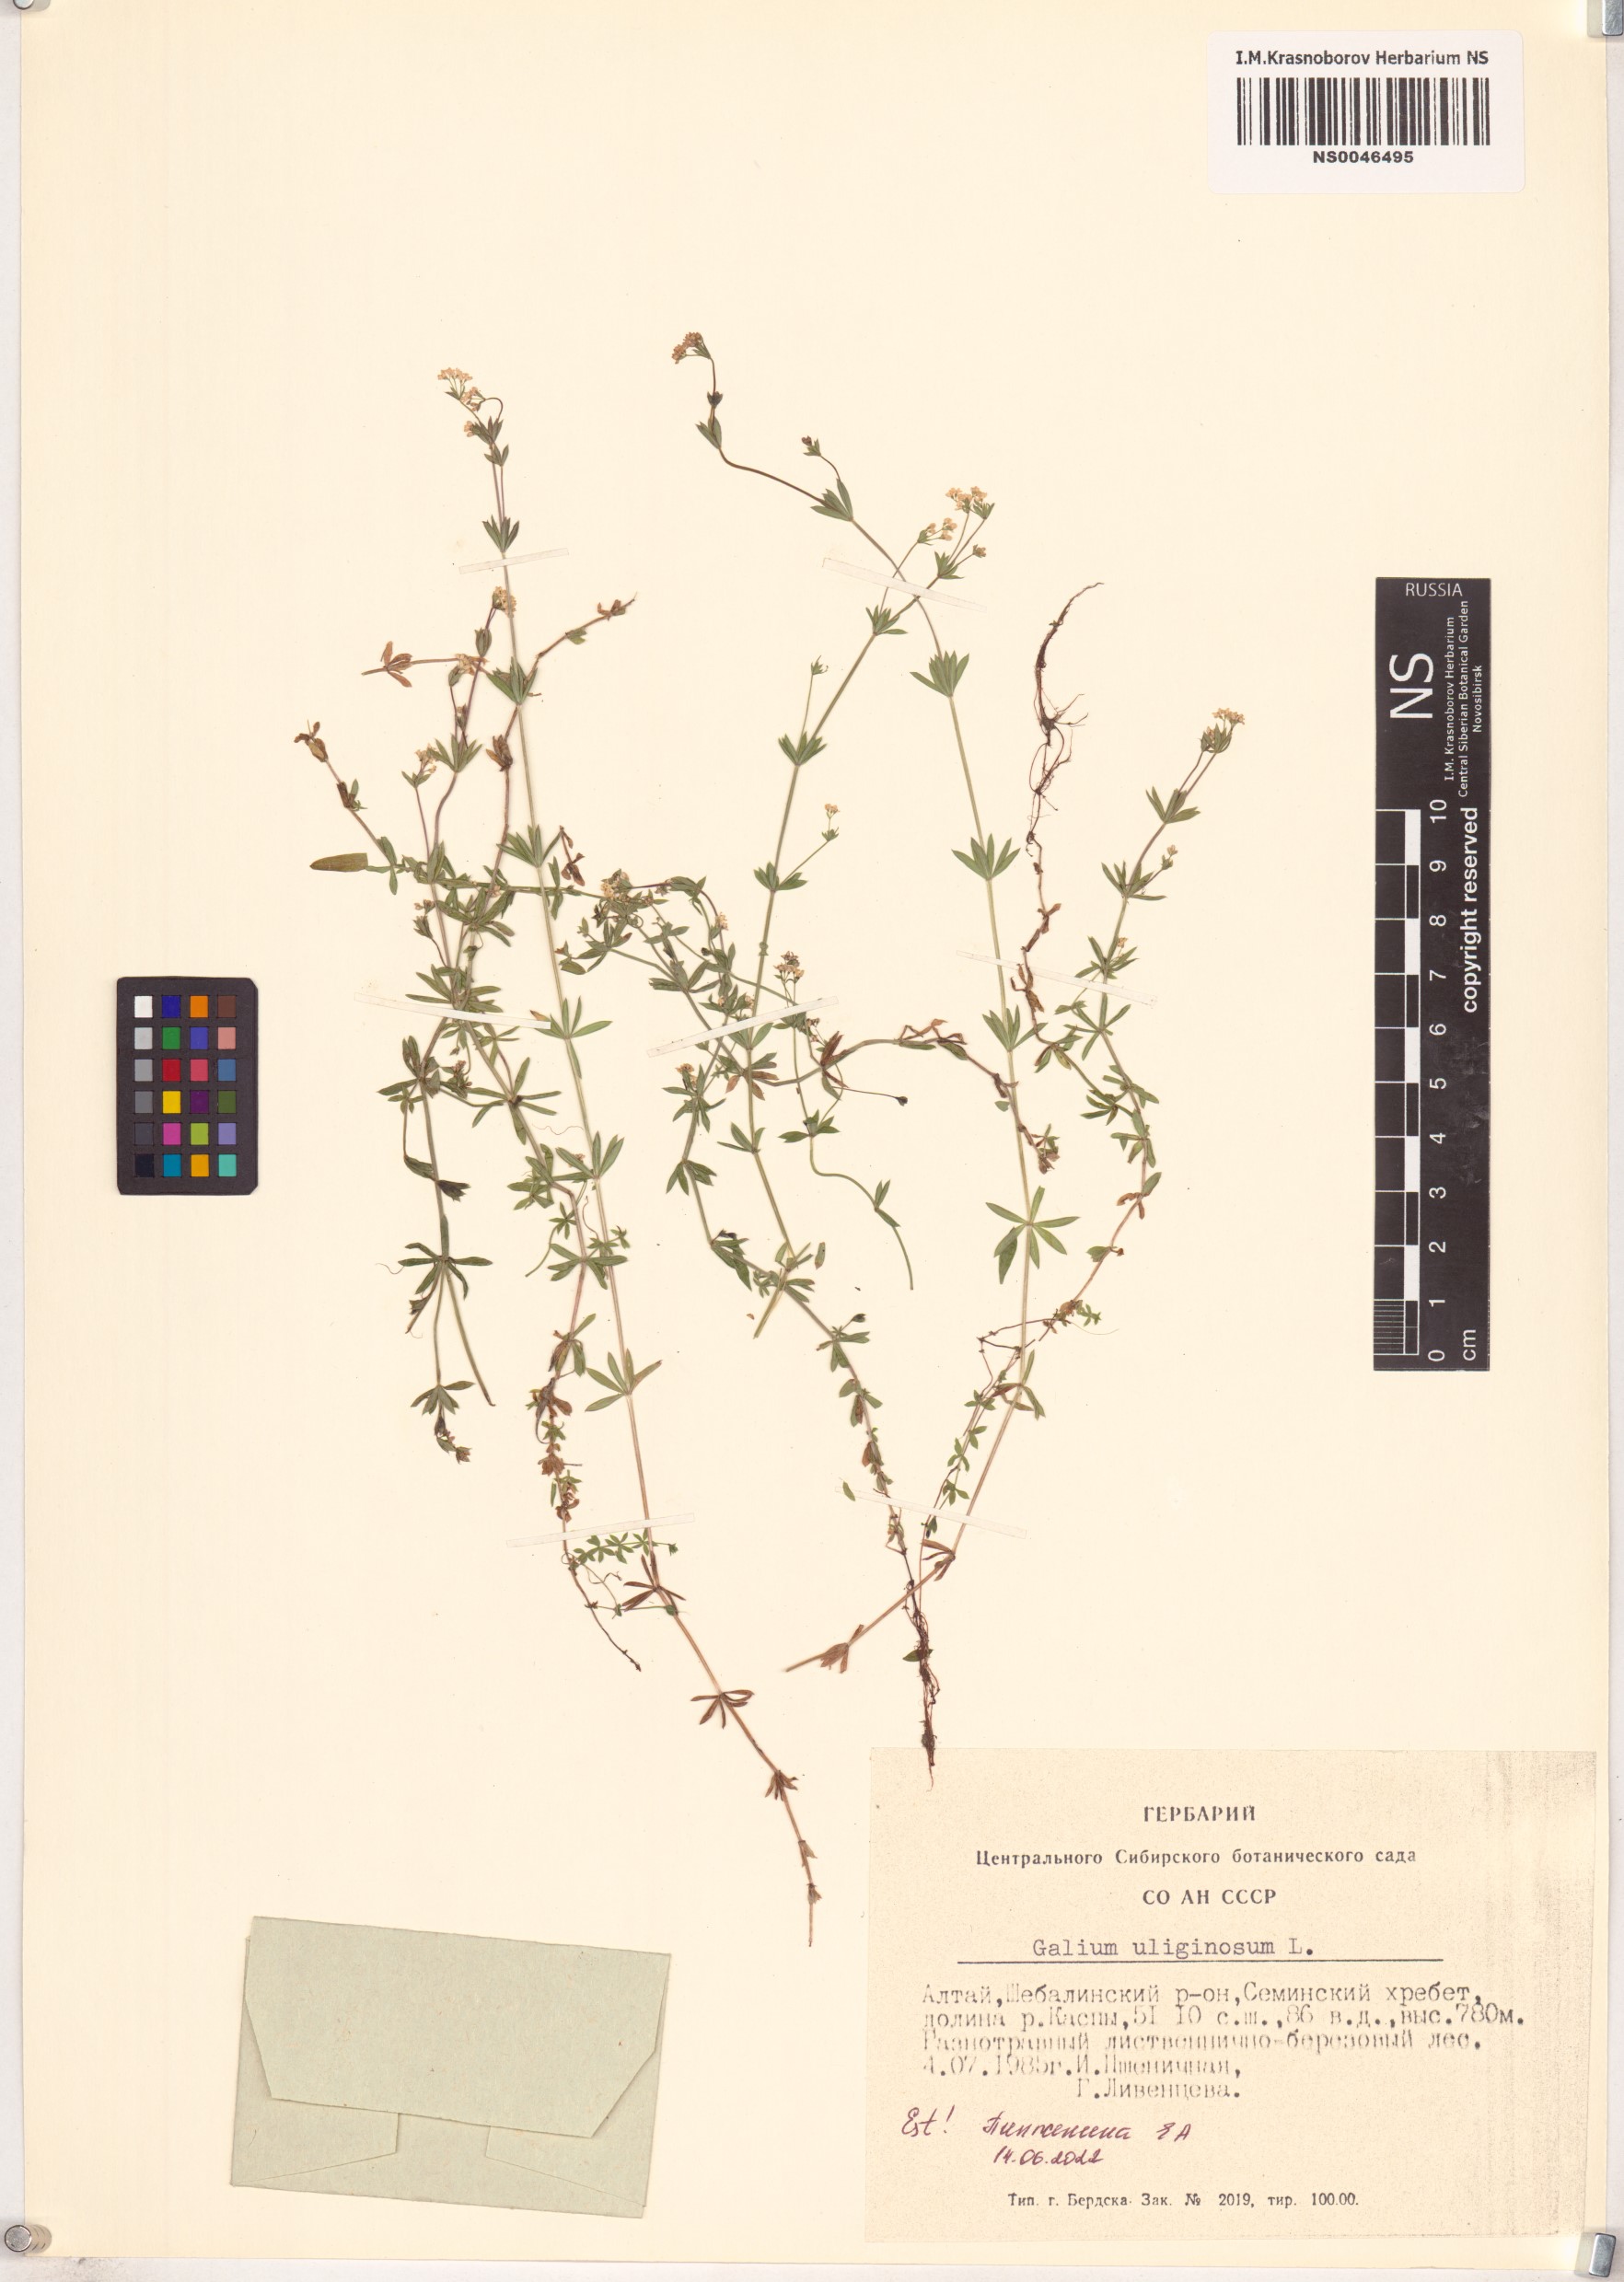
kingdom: Plantae
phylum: Tracheophyta
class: Magnoliopsida
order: Gentianales
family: Rubiaceae
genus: Galium
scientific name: Galium uliginosum
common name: Fen bedstraw
